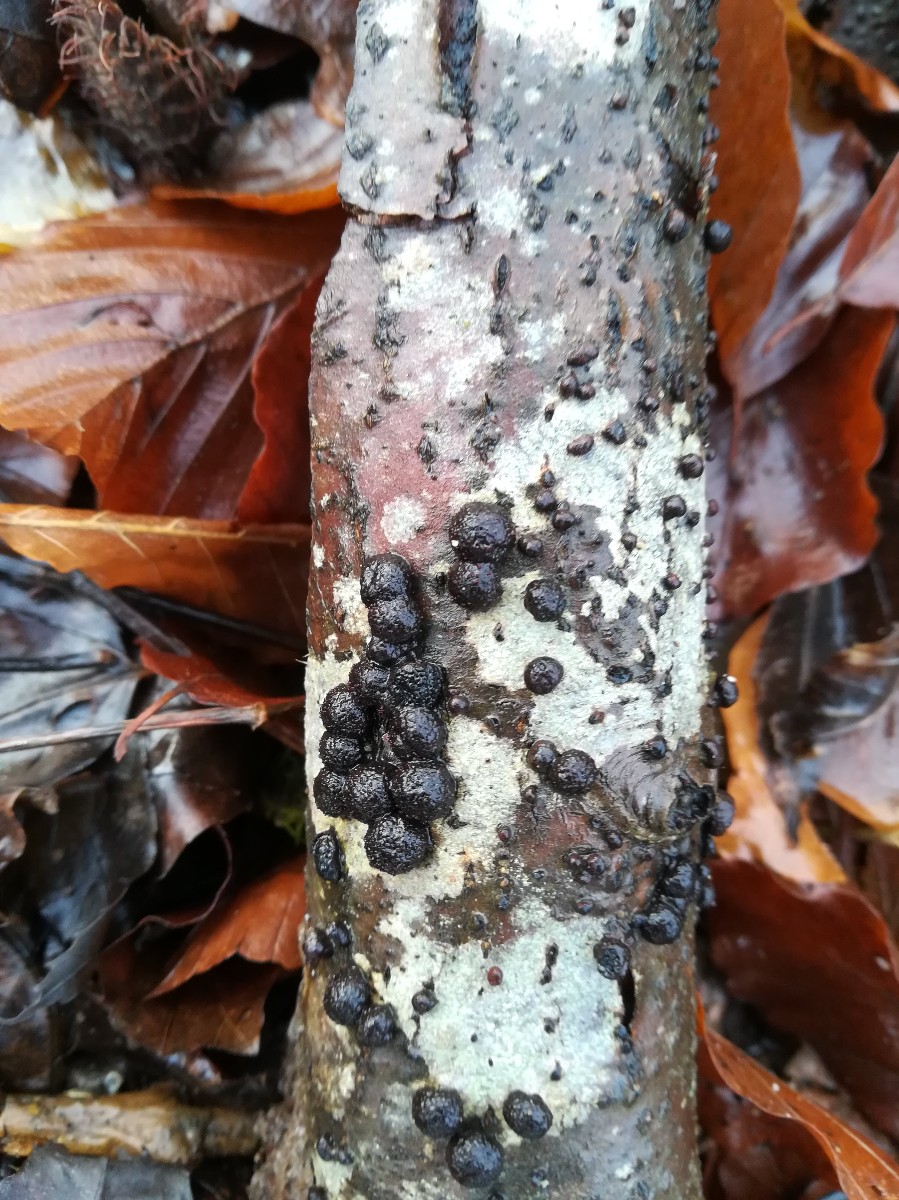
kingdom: Fungi
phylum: Ascomycota
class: Sordariomycetes
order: Xylariales
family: Hypoxylaceae
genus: Hypoxylon
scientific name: Hypoxylon fragiforme
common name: kuljordbær
